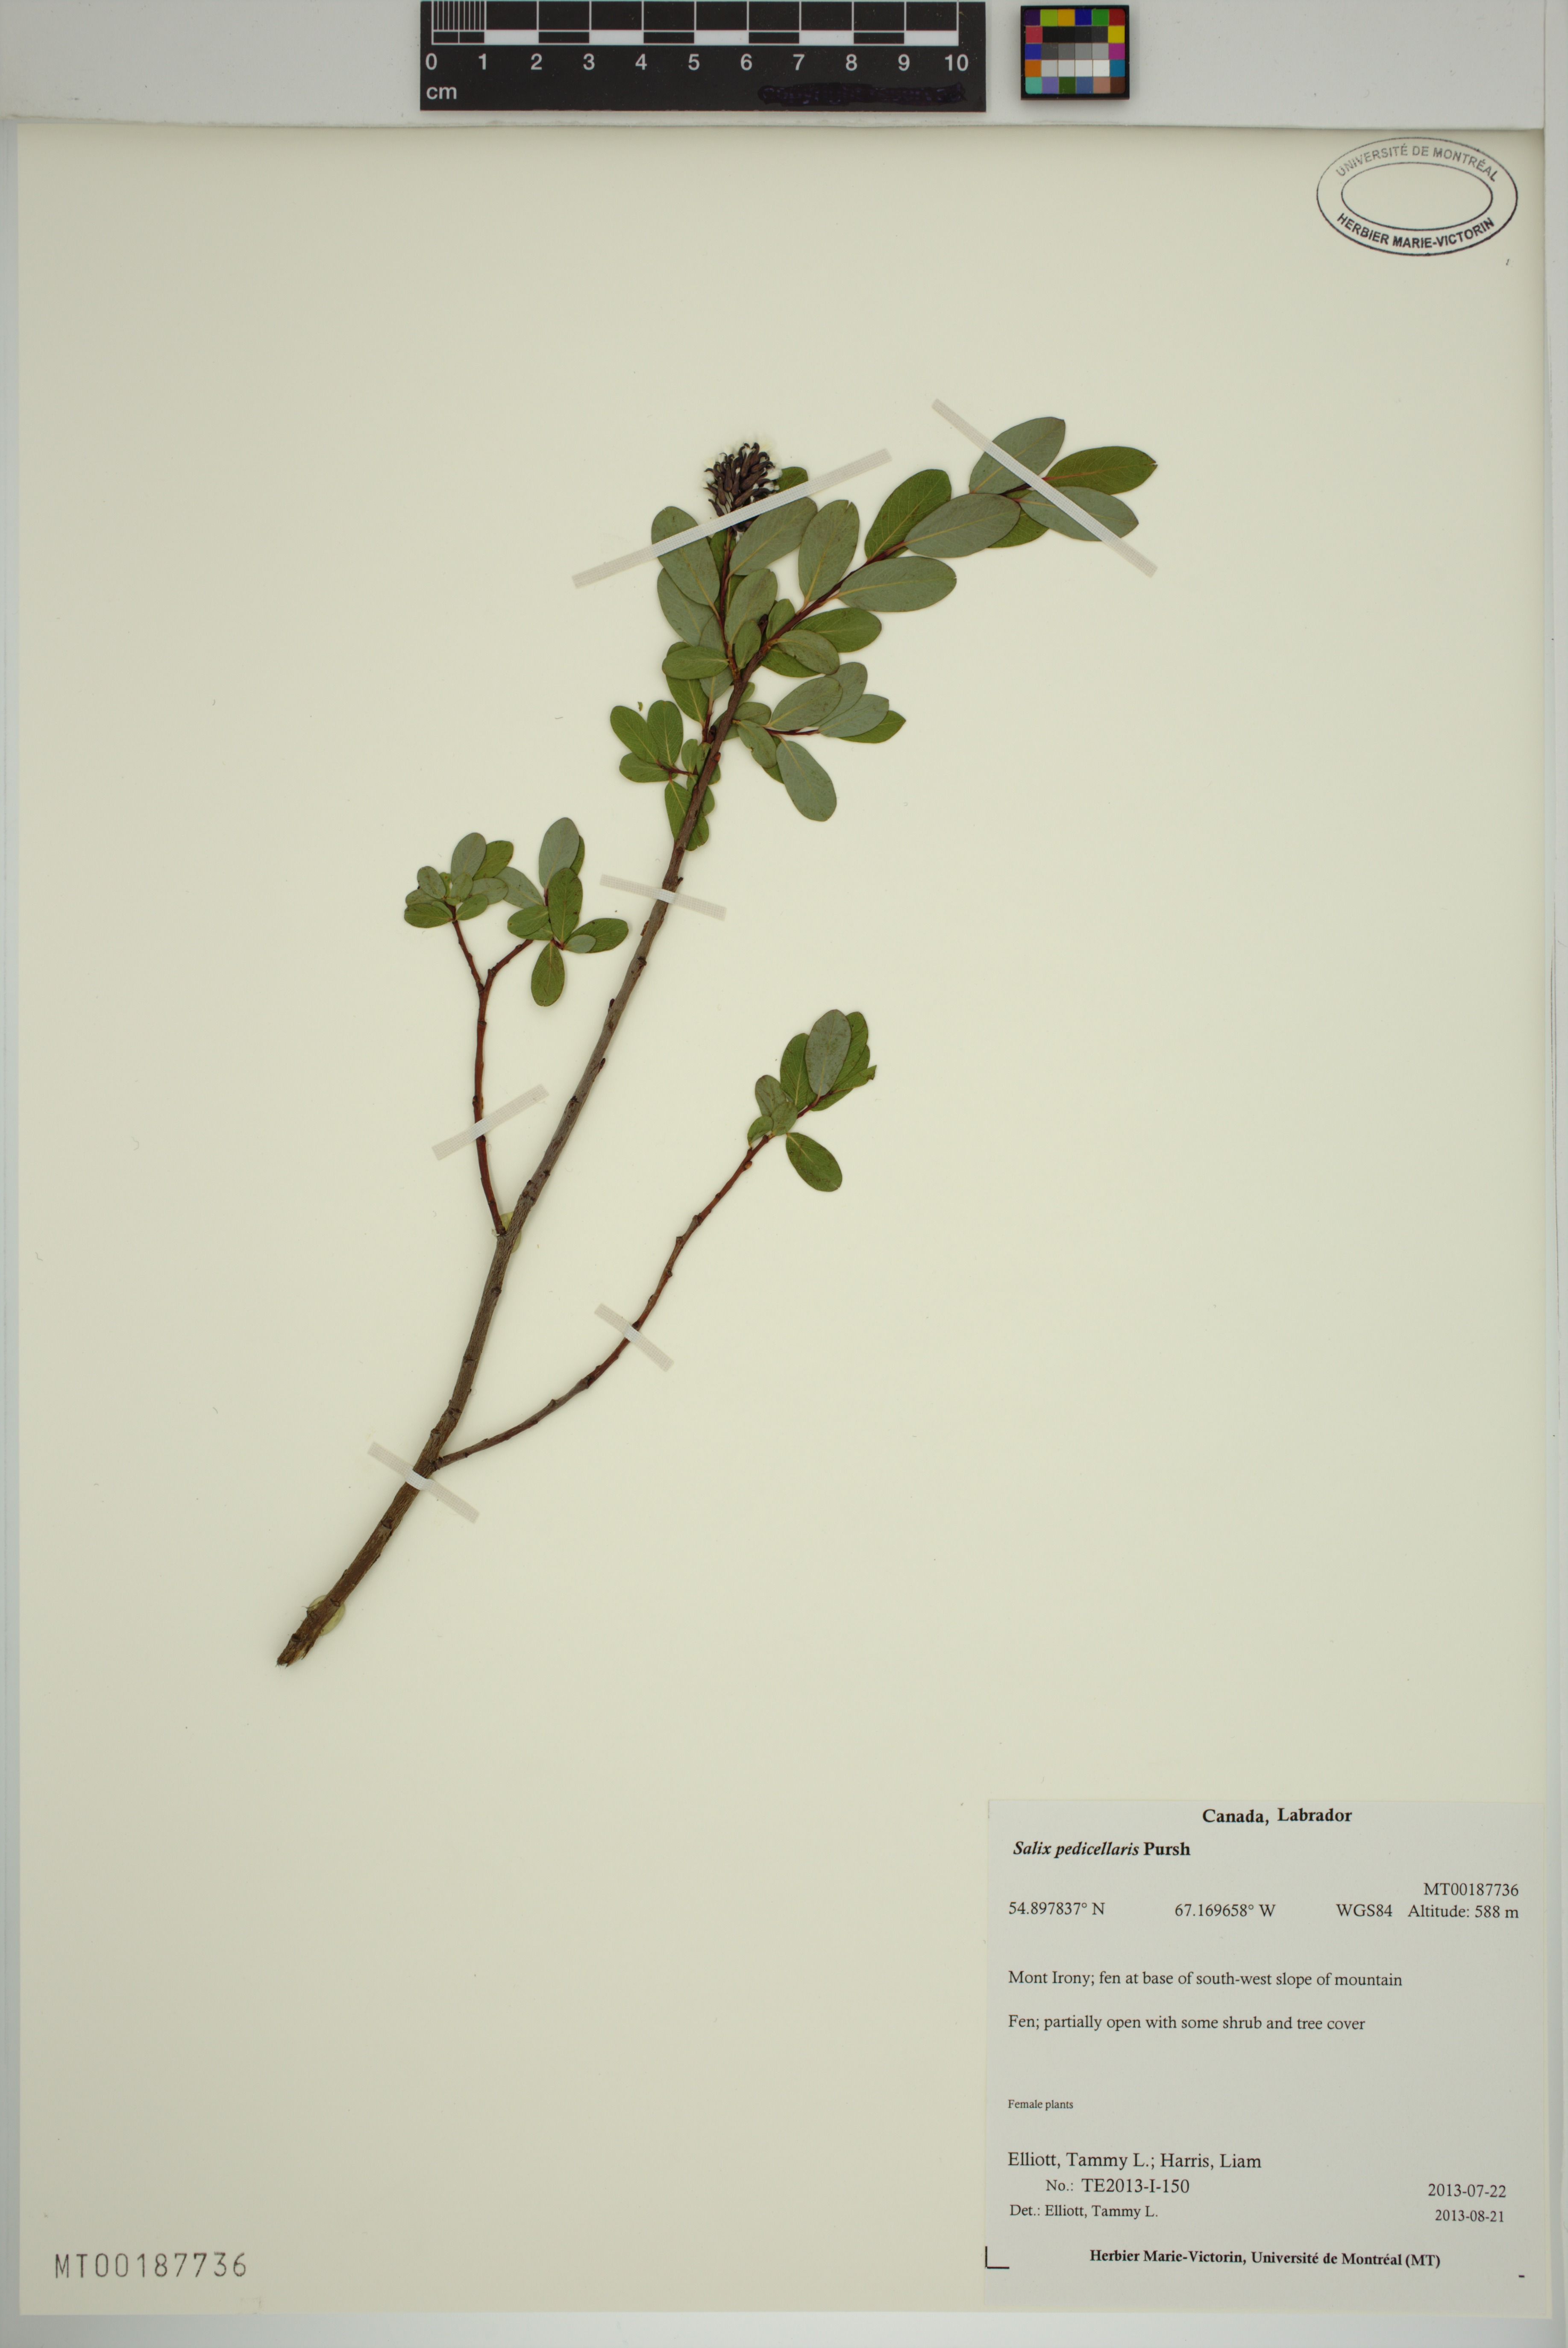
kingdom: Plantae
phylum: Tracheophyta
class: Magnoliopsida
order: Malpighiales
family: Salicaceae
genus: Salix
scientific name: Salix pedicellaris
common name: Bog willow
